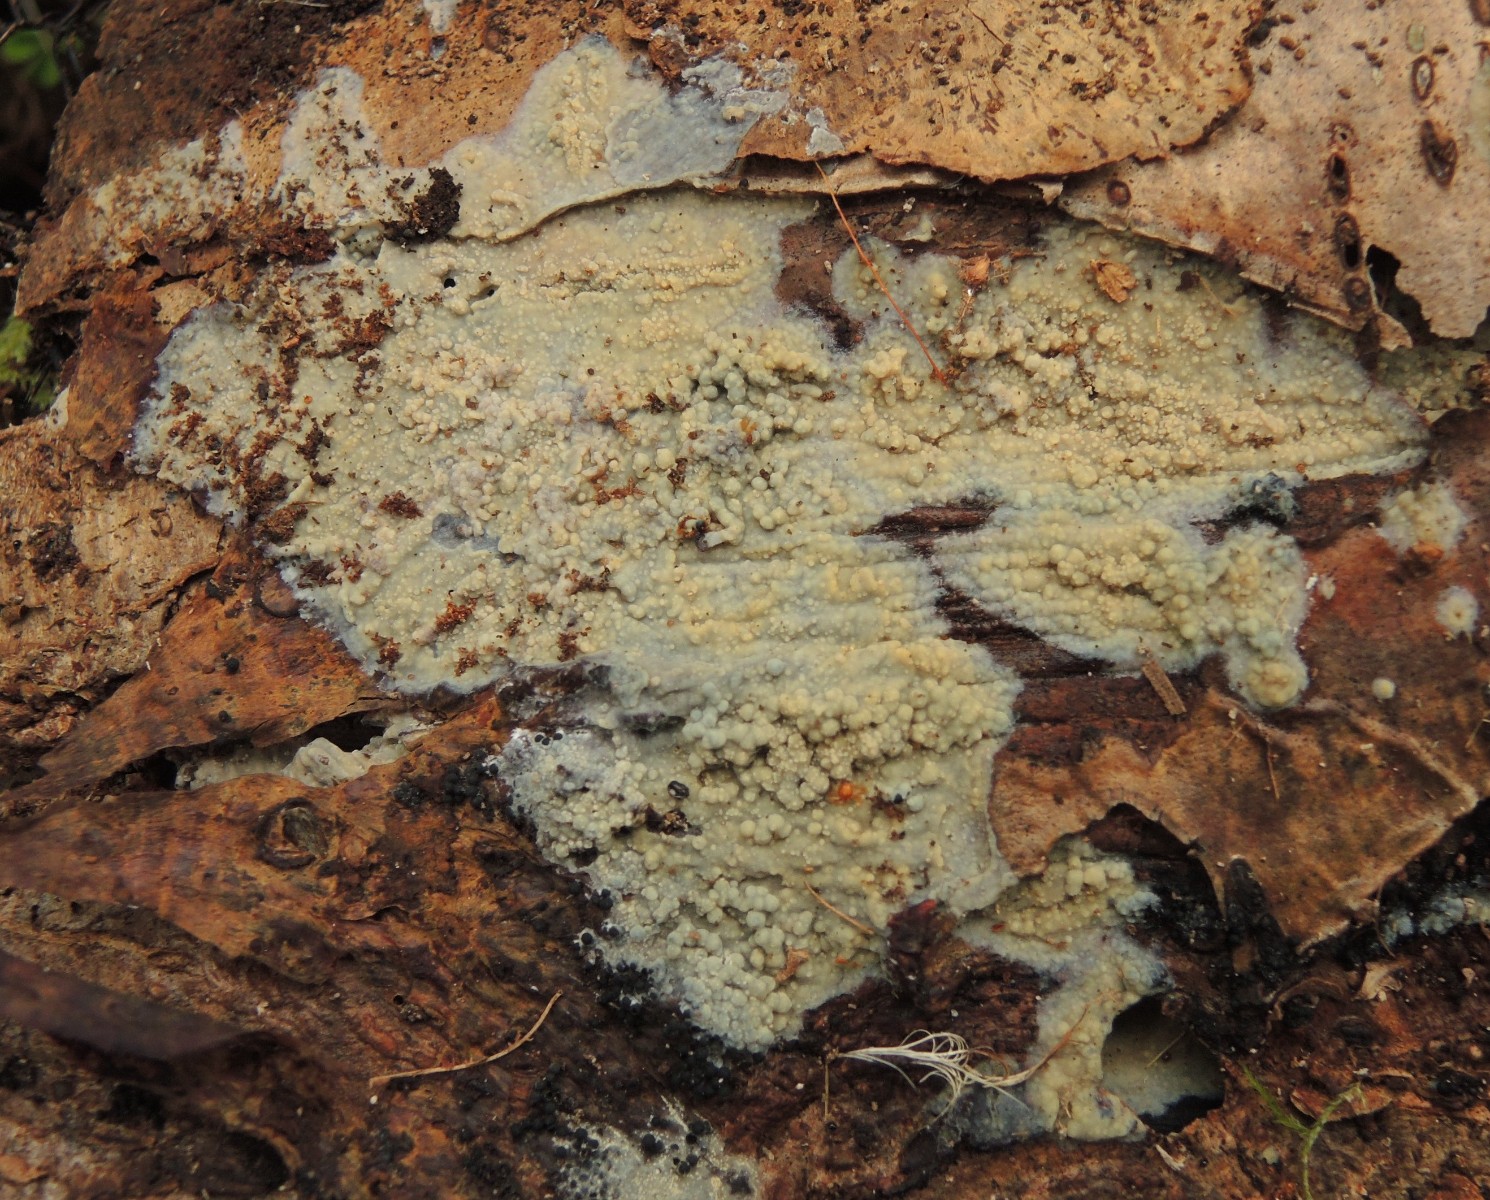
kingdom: Fungi
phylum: Basidiomycota
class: Agaricomycetes
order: Polyporales
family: Meruliaceae
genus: Cytidiella
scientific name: Cytidiella albida
